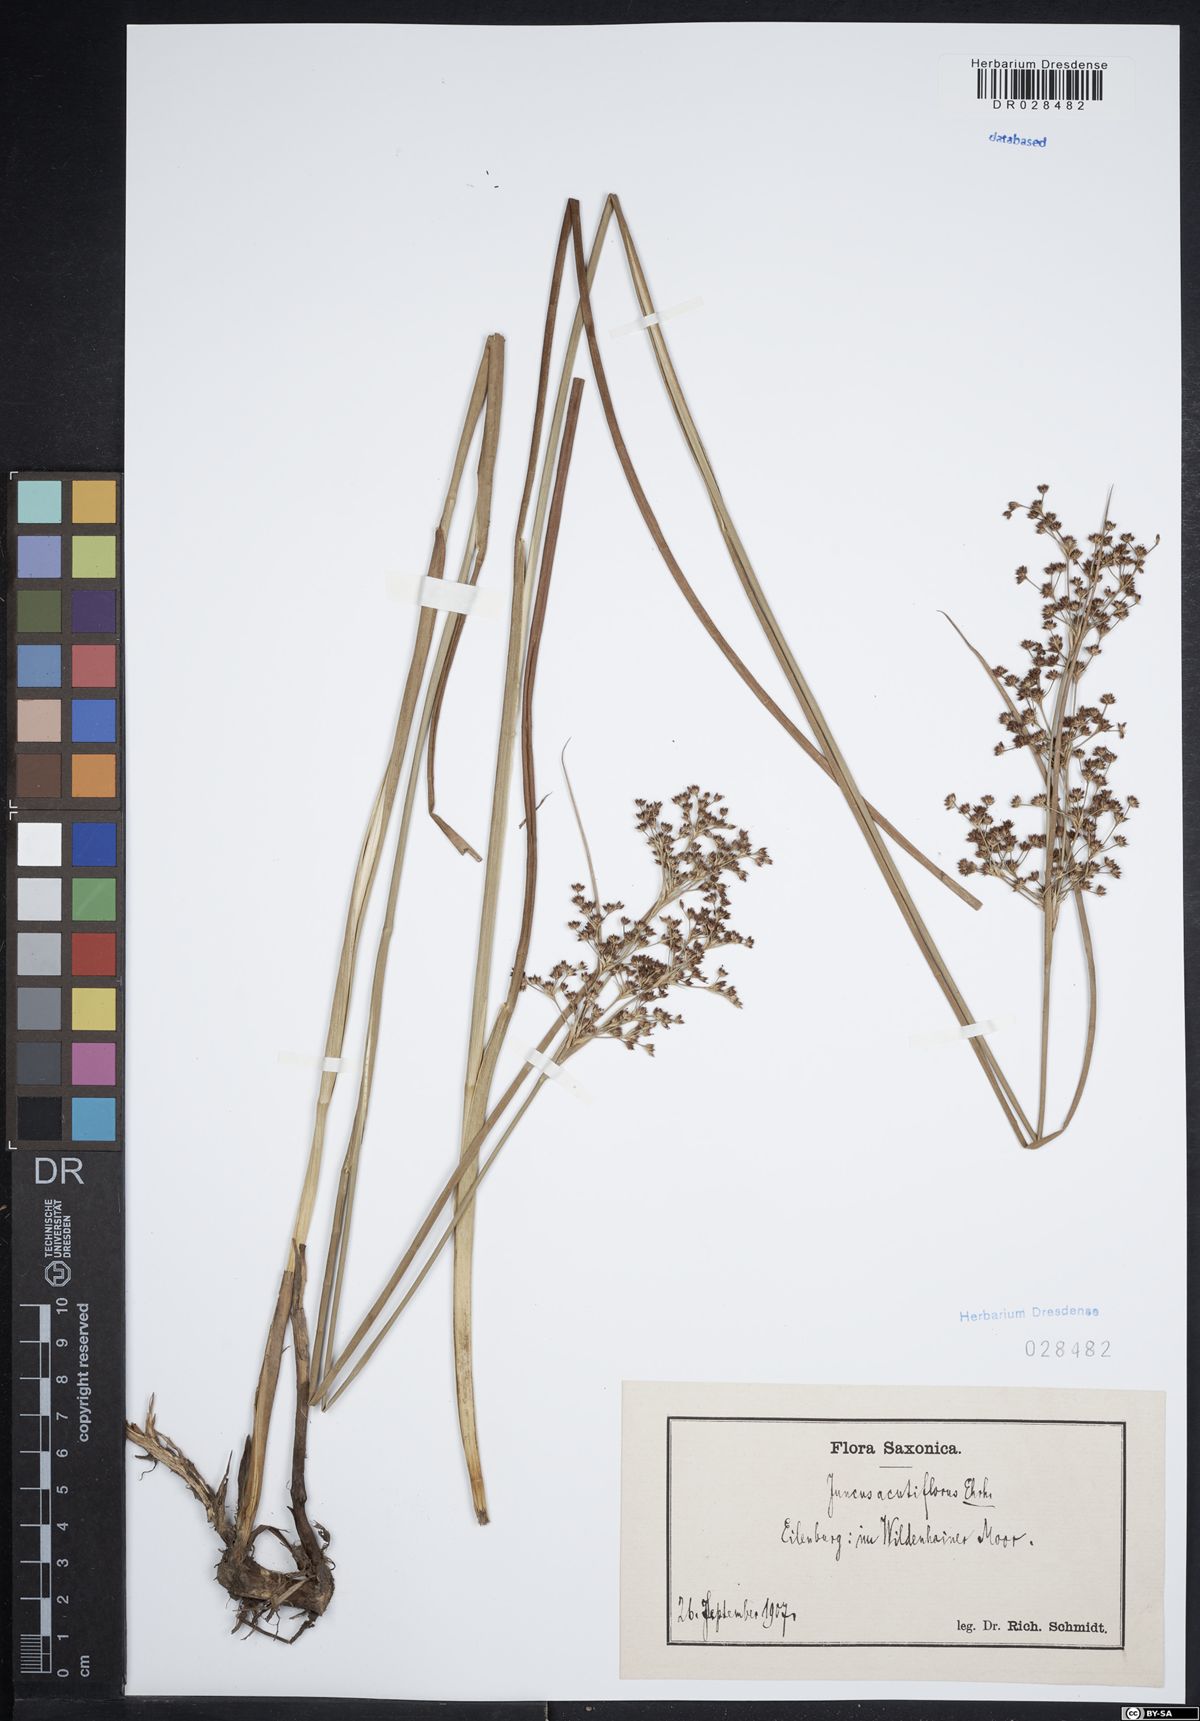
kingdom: Plantae
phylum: Tracheophyta
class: Liliopsida
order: Poales
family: Juncaceae
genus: Juncus
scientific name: Juncus acutiflorus
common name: Sharp-flowered rush
